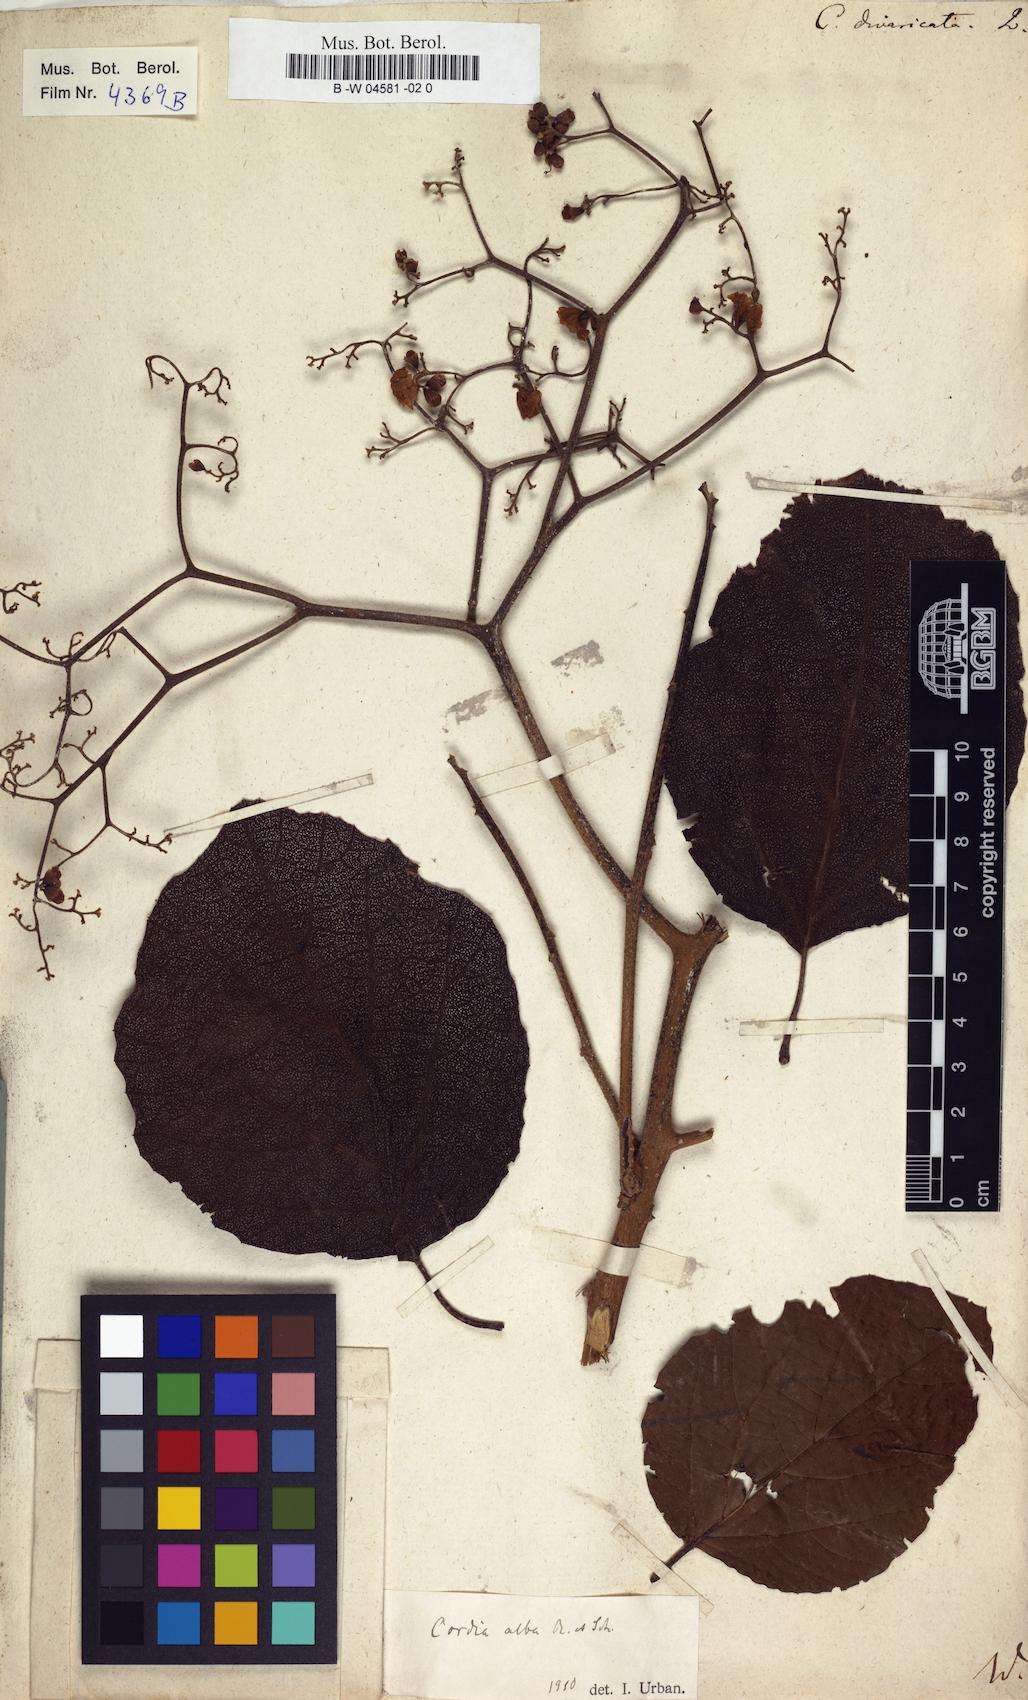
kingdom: Plantae
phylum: Tracheophyta
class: Magnoliopsida
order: Boraginales
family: Cordiaceae
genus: Varronia
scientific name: Varronia curassavica
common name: Black sage
